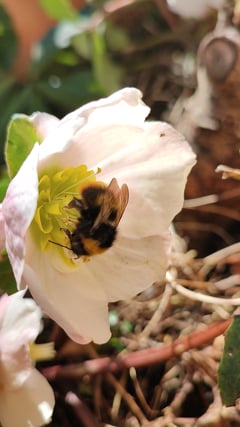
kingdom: Animalia
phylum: Arthropoda
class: Insecta
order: Hymenoptera
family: Apidae
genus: Bombus
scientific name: Bombus pratorum
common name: Early humble-bee
